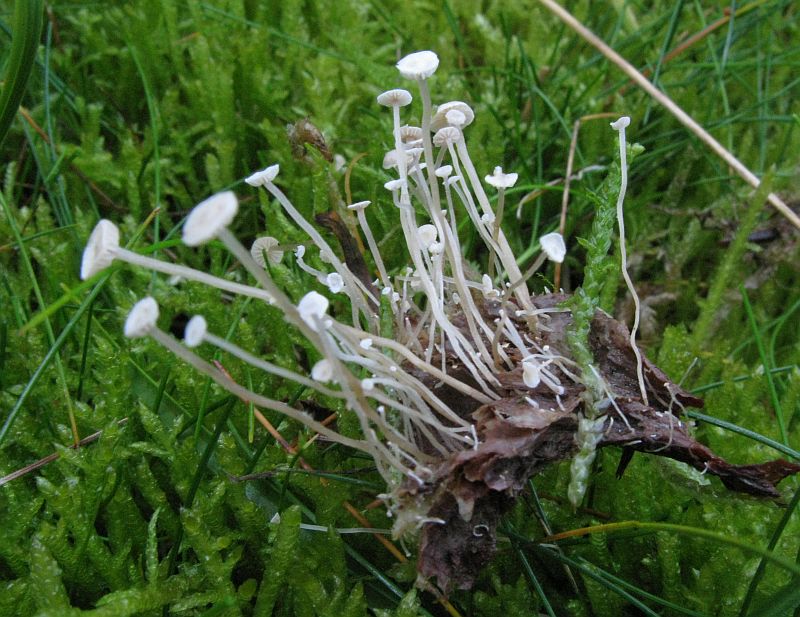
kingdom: Fungi
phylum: Basidiomycota
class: Agaricomycetes
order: Agaricales
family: Tricholomataceae
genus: Collybia
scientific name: Collybia cirrhata
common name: silke-lighat
